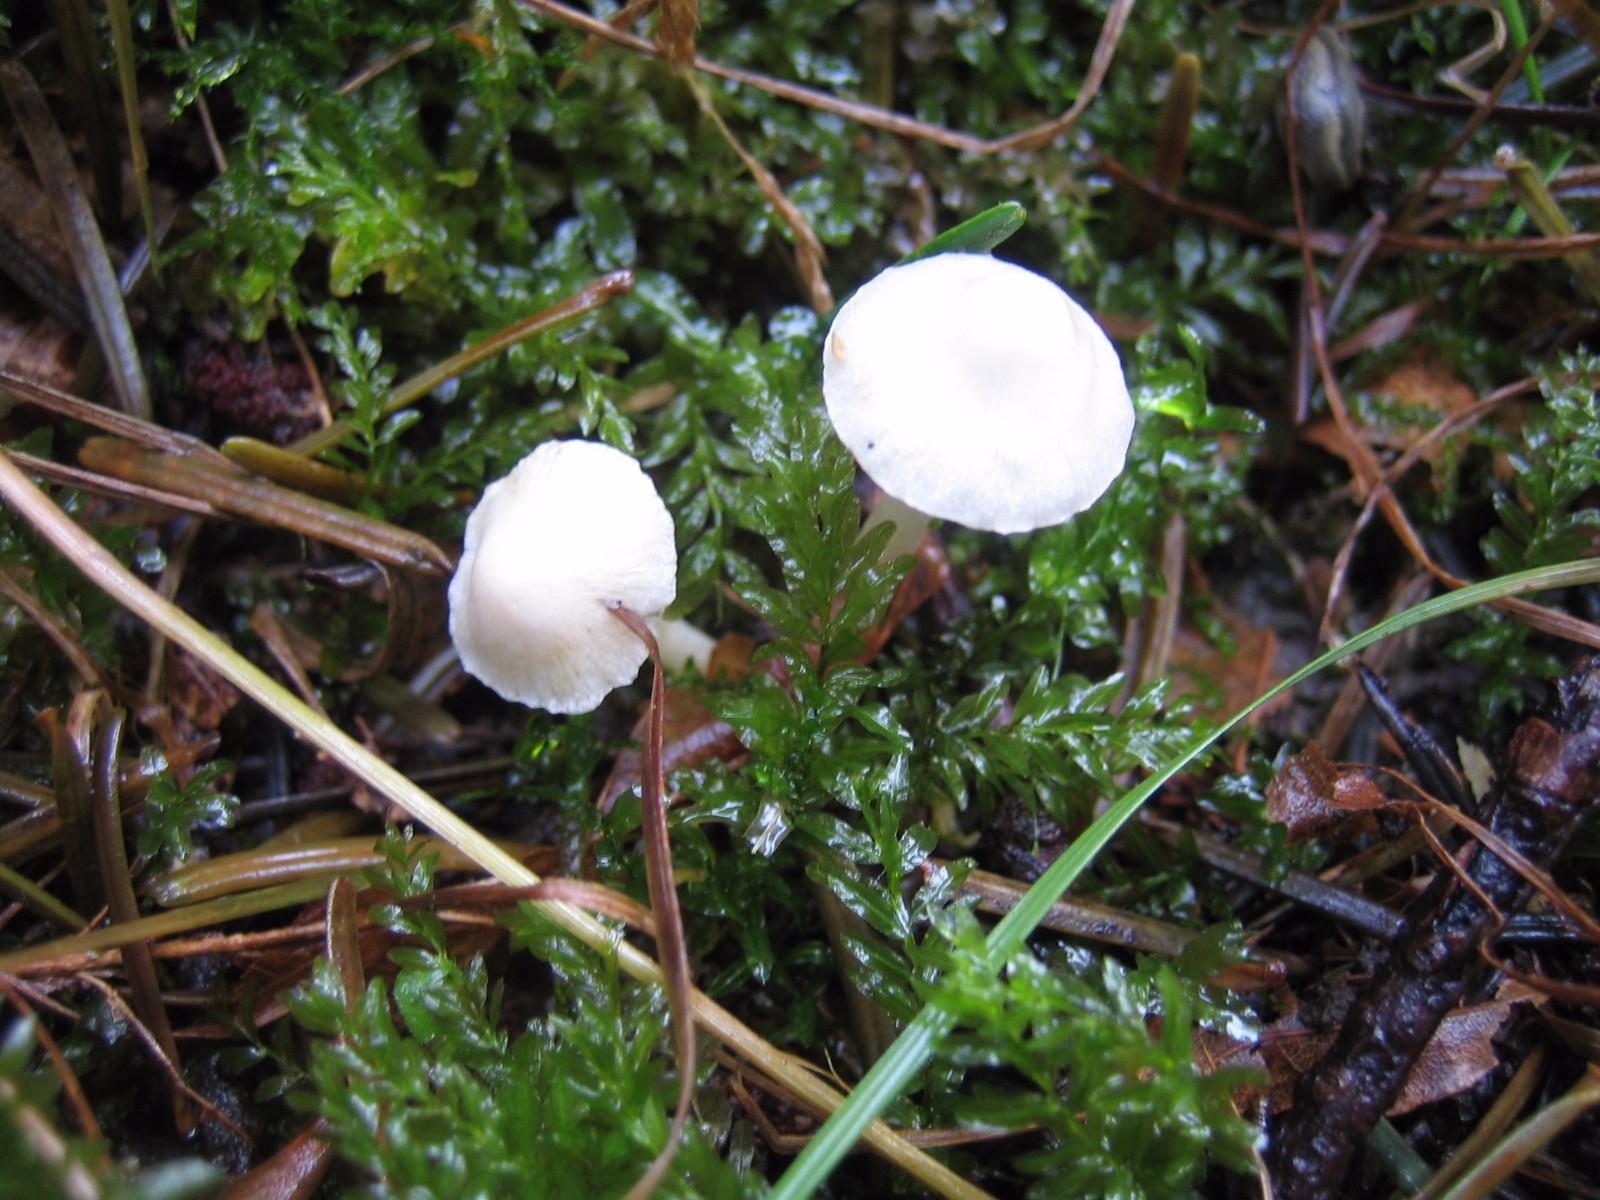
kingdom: Fungi
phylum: Basidiomycota
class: Agaricomycetes
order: Agaricales
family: Inocybaceae
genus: Inocybe
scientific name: Inocybe
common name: trævlhat
